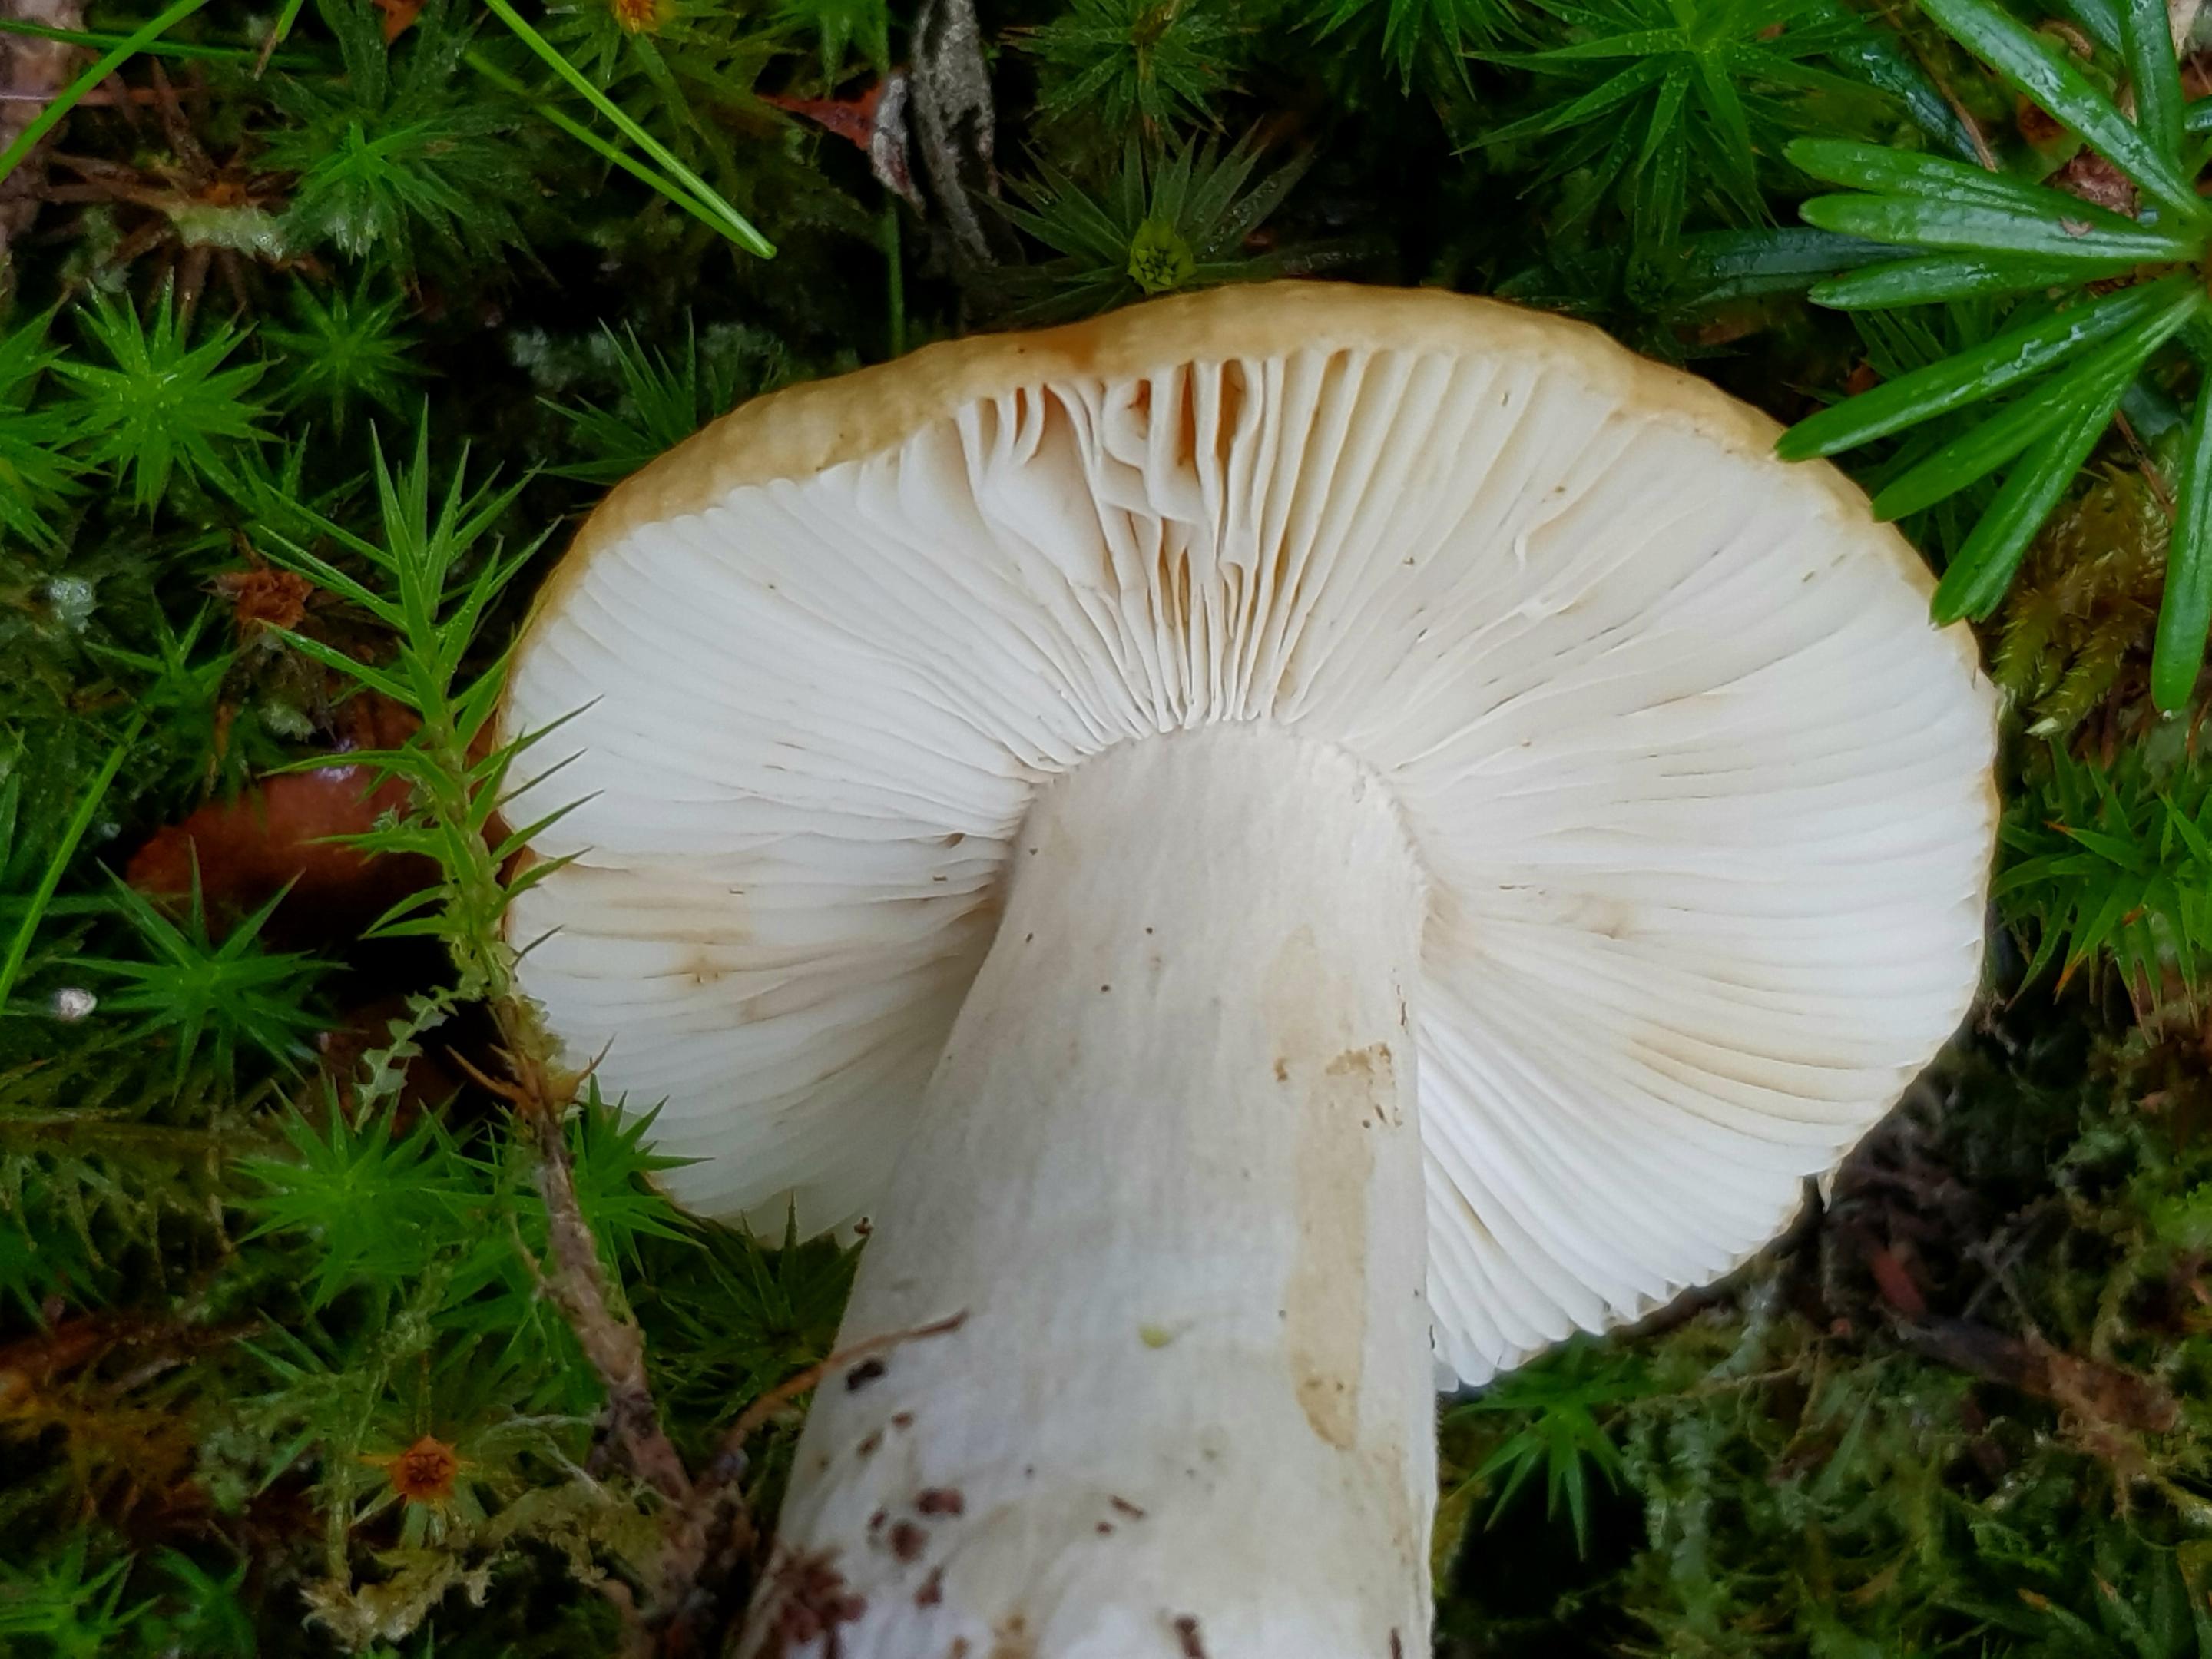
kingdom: Fungi
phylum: Basidiomycota
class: Agaricomycetes
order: Russulales
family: Russulaceae
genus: Russula
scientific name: Russula ochroleuca
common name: okkergul skørhat
